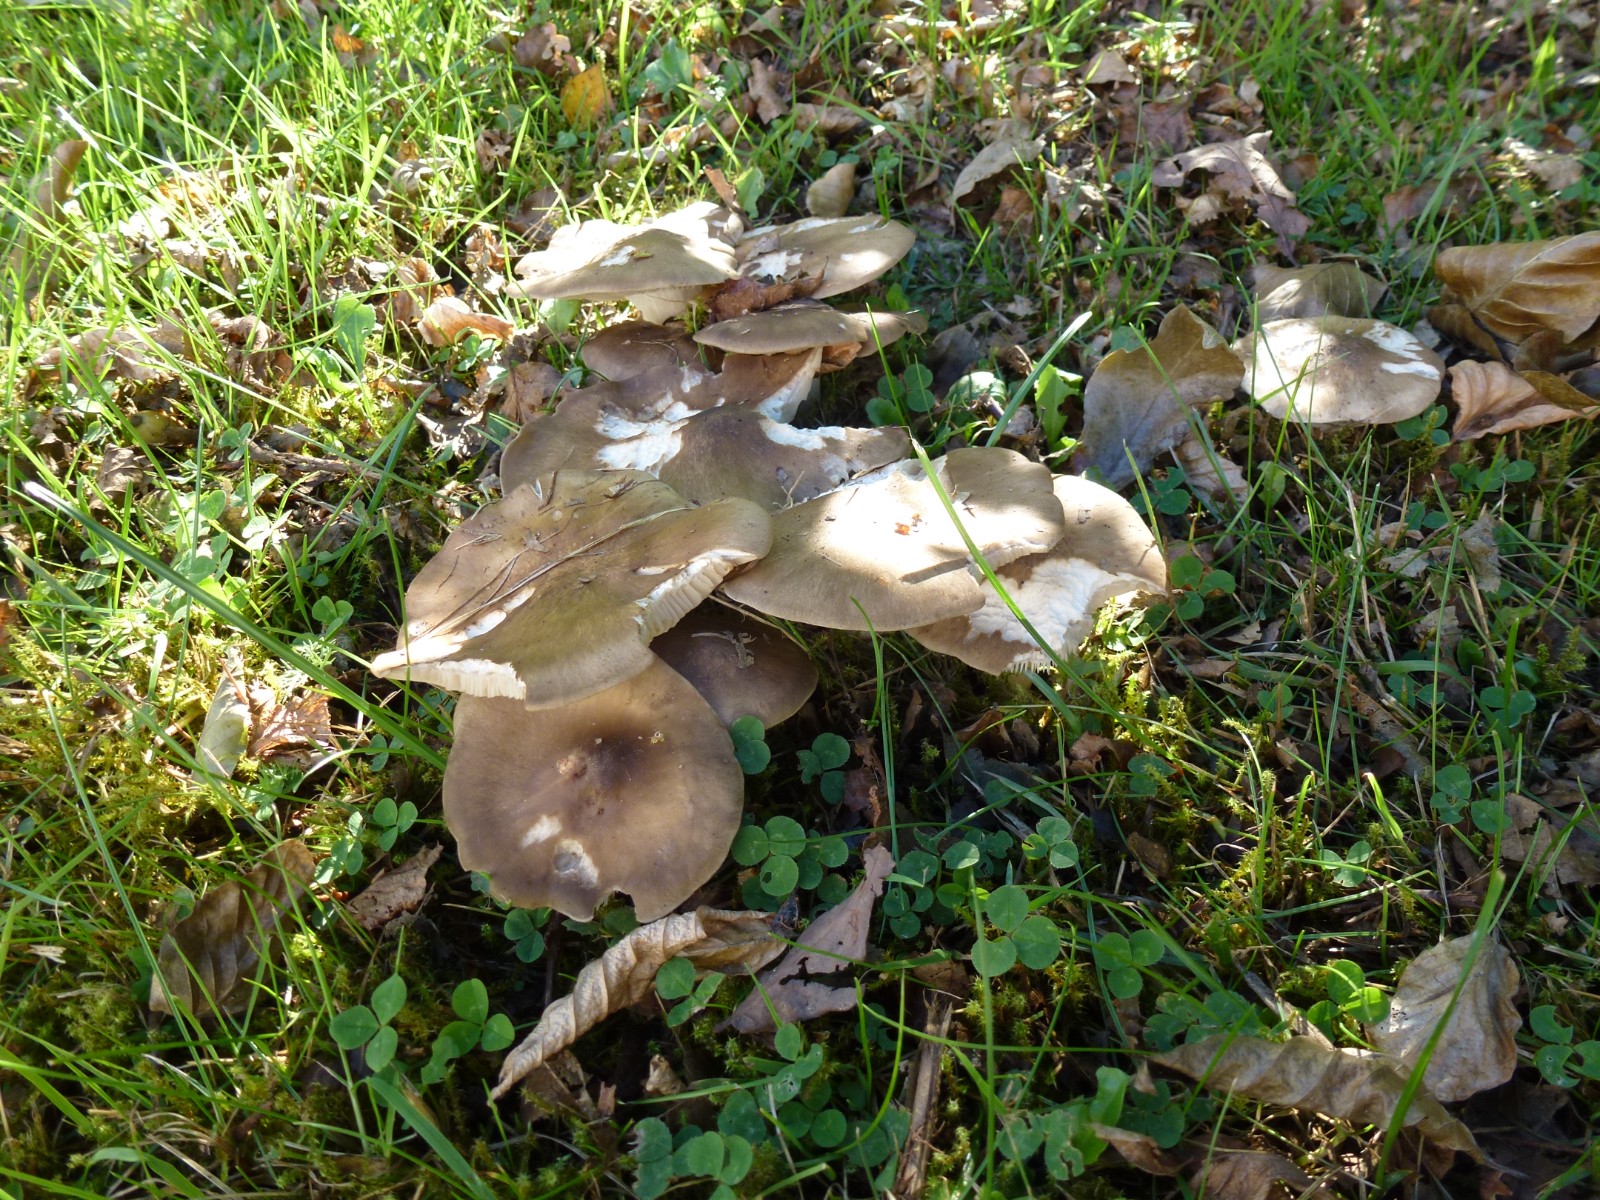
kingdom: Fungi
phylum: Basidiomycota
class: Agaricomycetes
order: Agaricales
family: Lyophyllaceae
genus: Lyophyllum
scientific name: Lyophyllum decastes
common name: Clustered domecap
